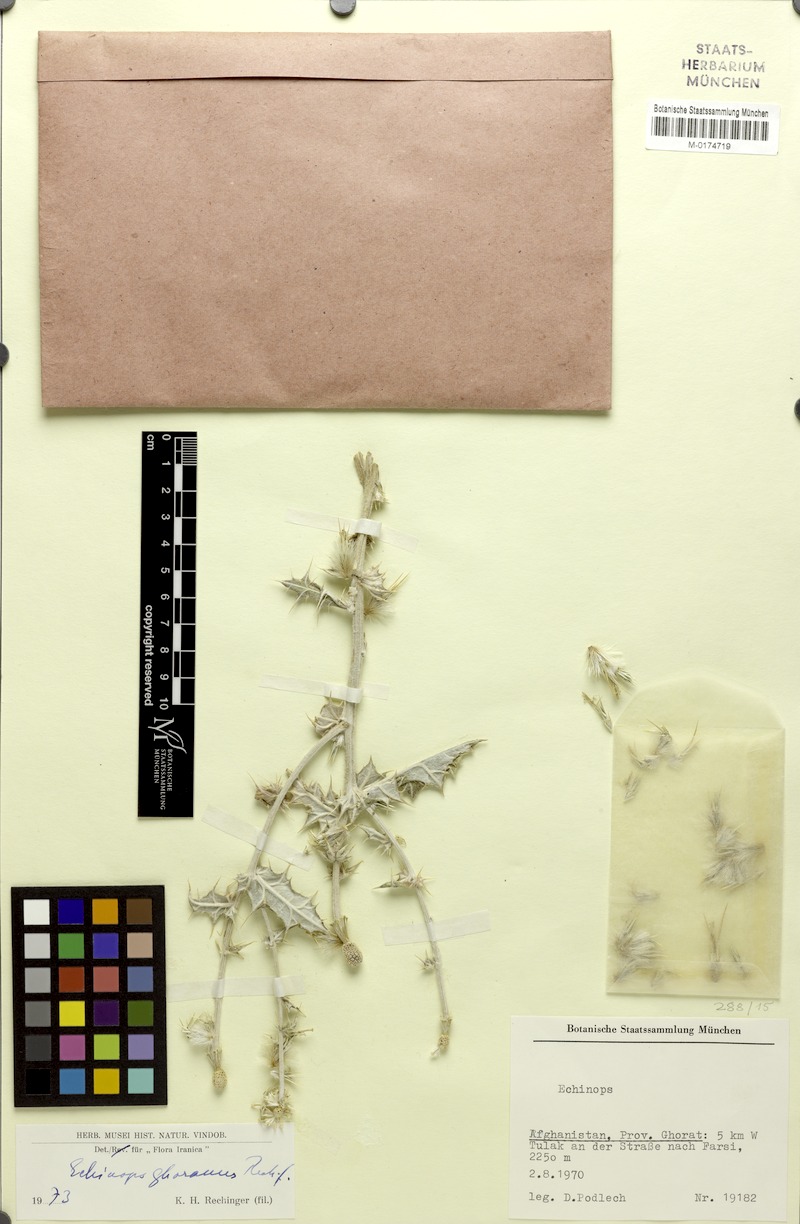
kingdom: Plantae
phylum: Tracheophyta
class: Magnoliopsida
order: Asterales
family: Asteraceae
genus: Echinops
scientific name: Echinops ghoranus
